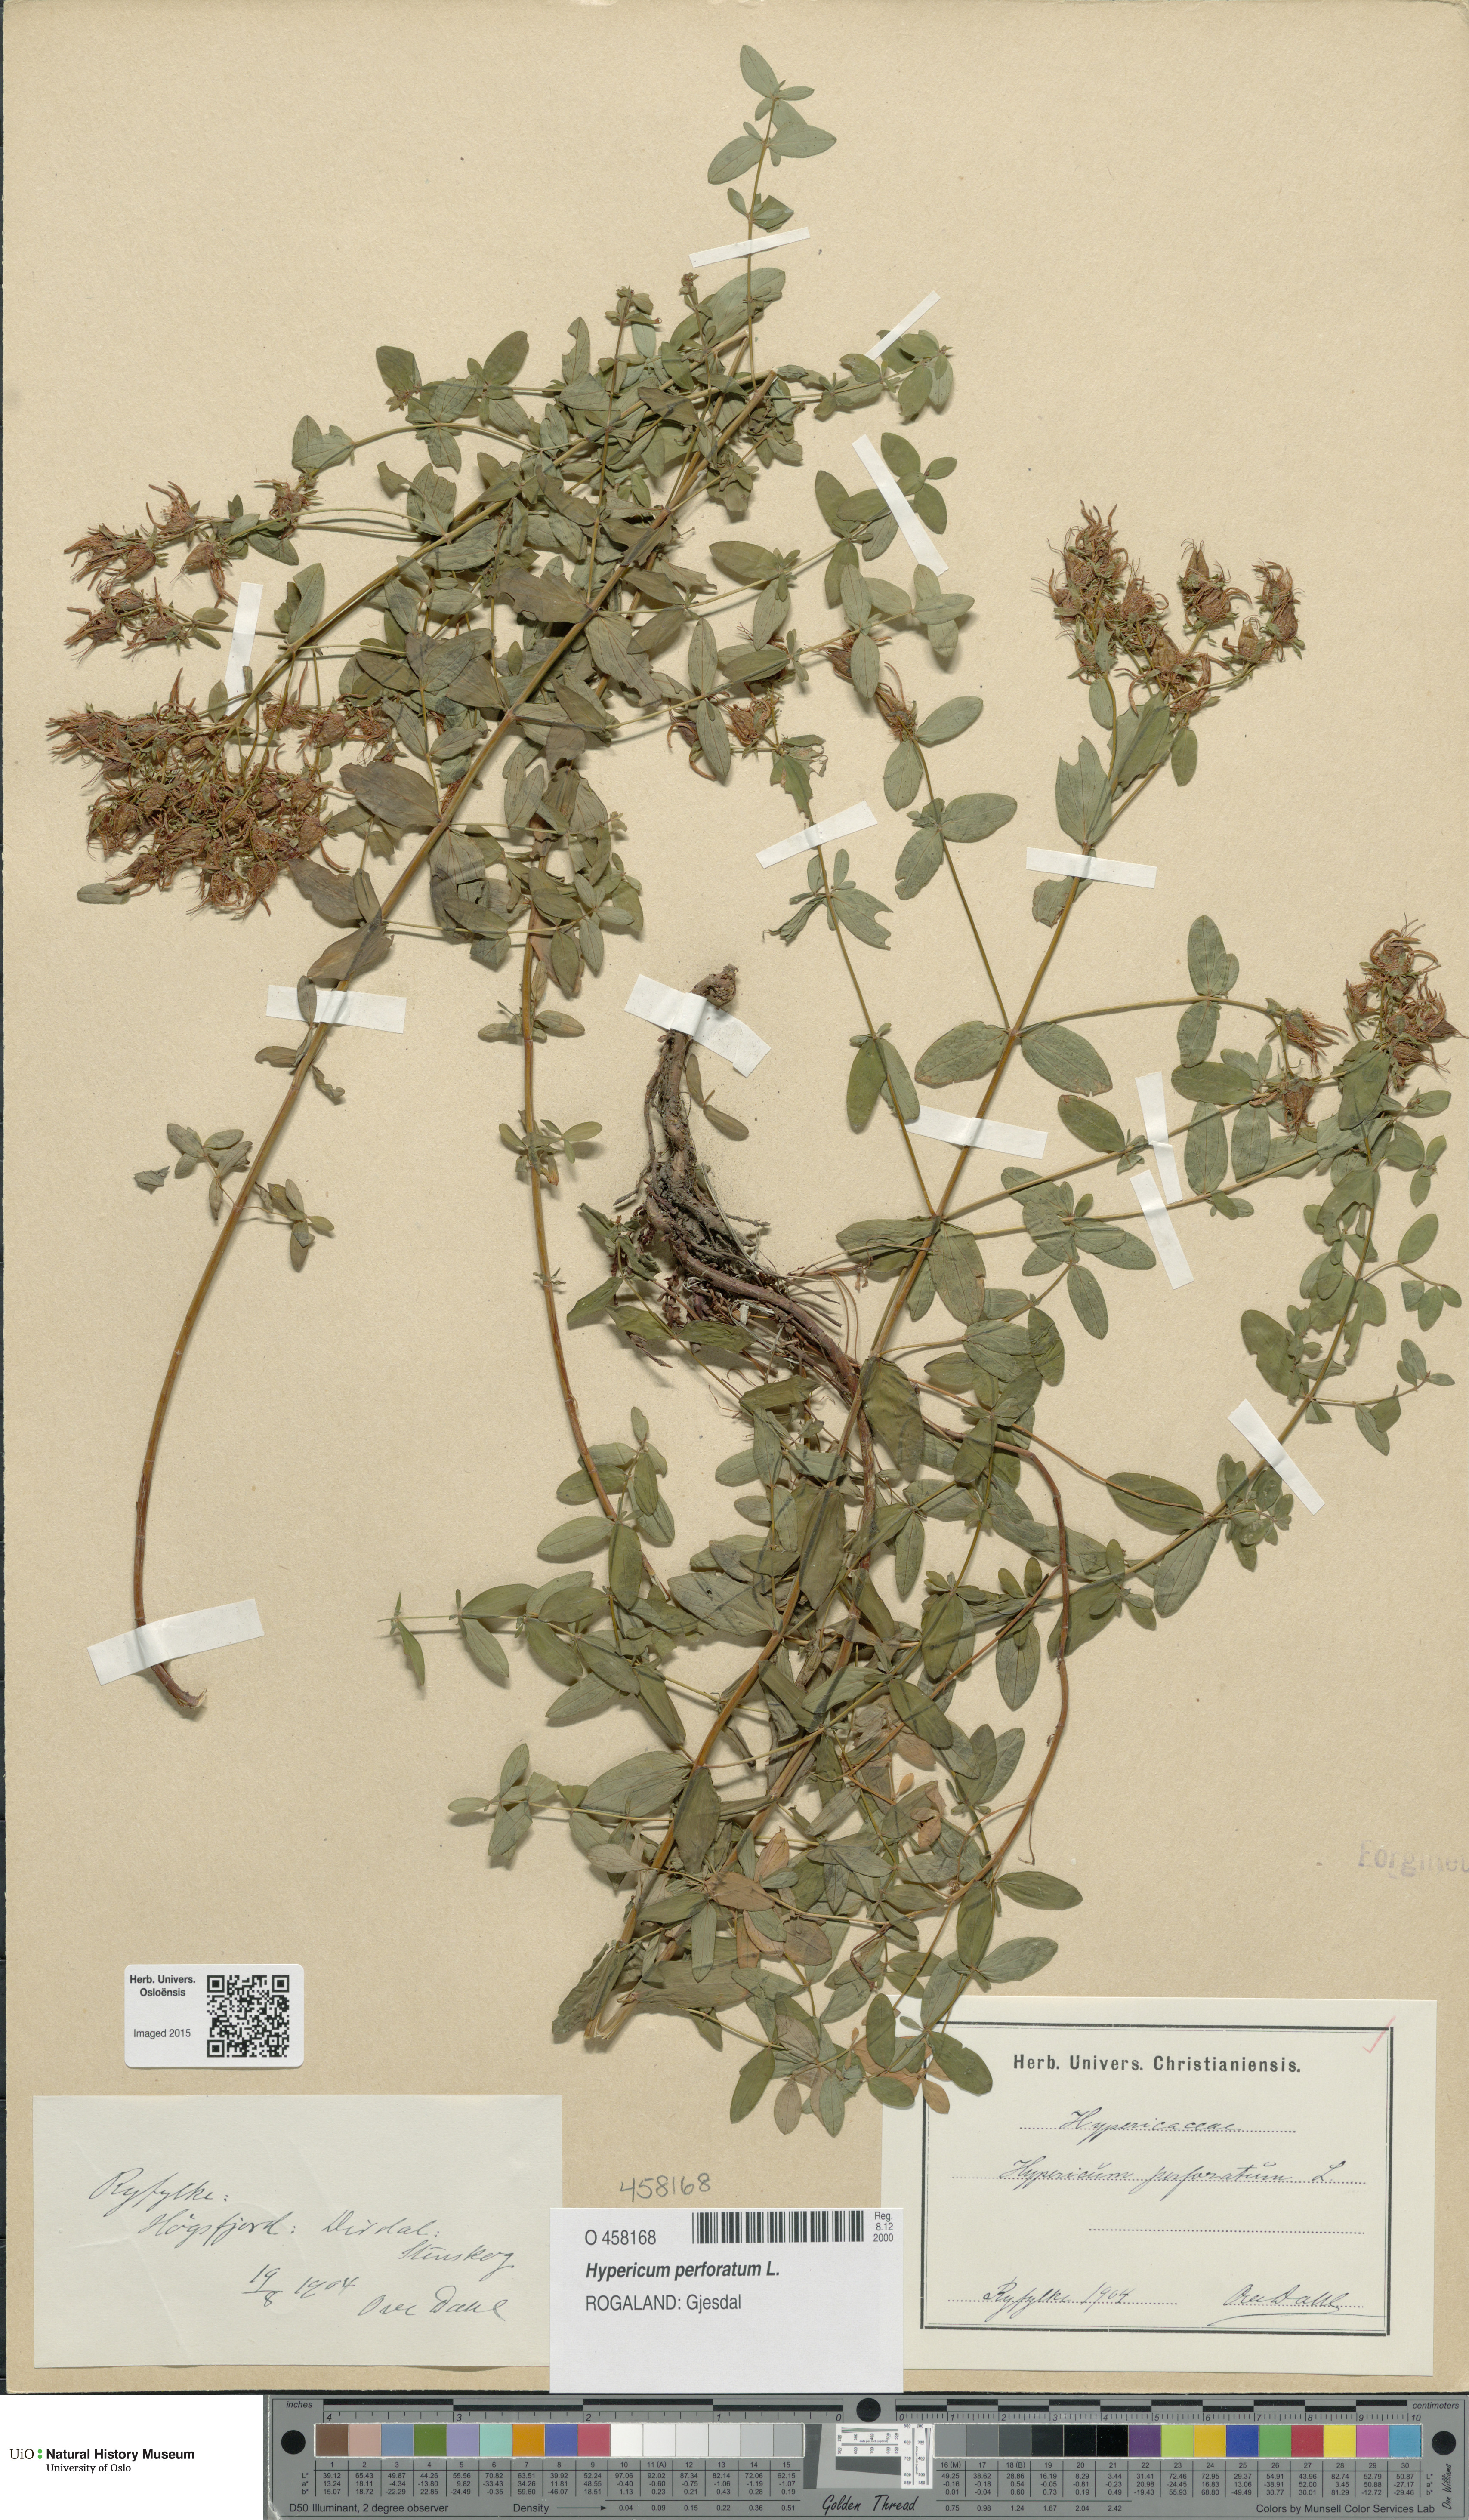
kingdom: Plantae
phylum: Tracheophyta
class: Magnoliopsida
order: Malpighiales
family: Hypericaceae
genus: Hypericum
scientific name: Hypericum perforatum
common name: Common st. johnswort
